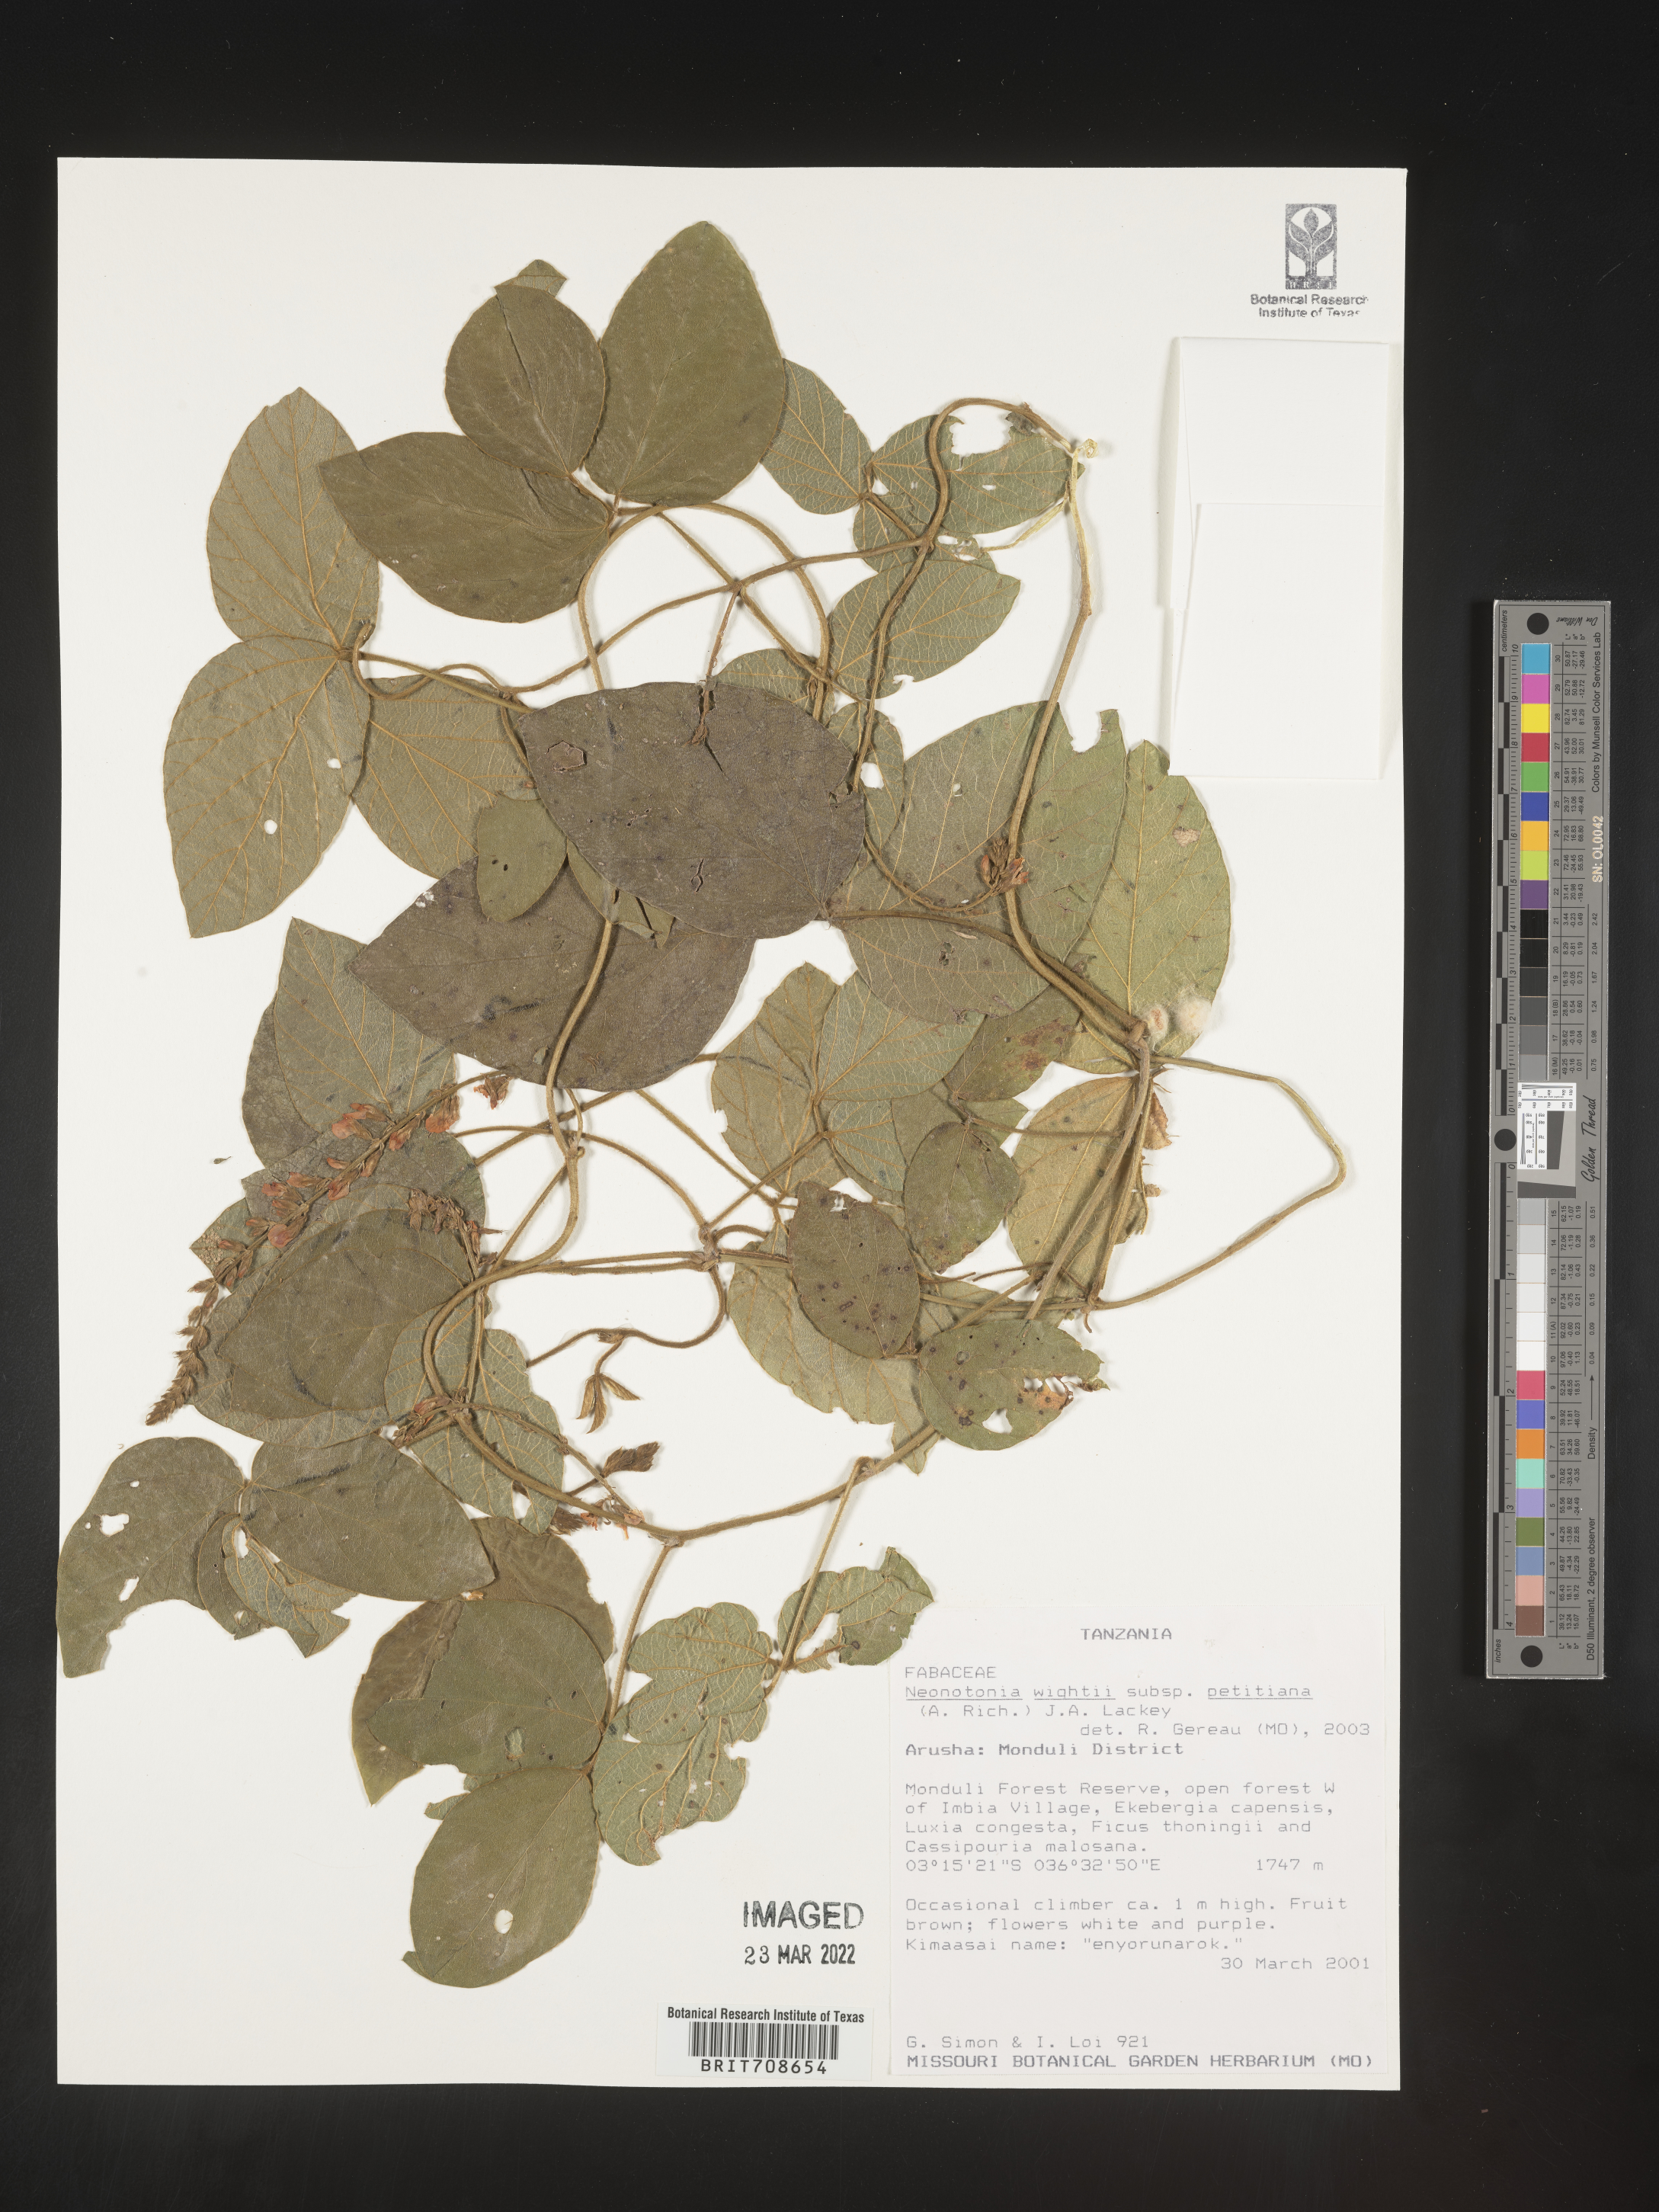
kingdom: Plantae
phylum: Tracheophyta
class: Magnoliopsida
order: Fabales
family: Fabaceae
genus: Neonotonia
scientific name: Neonotonia
